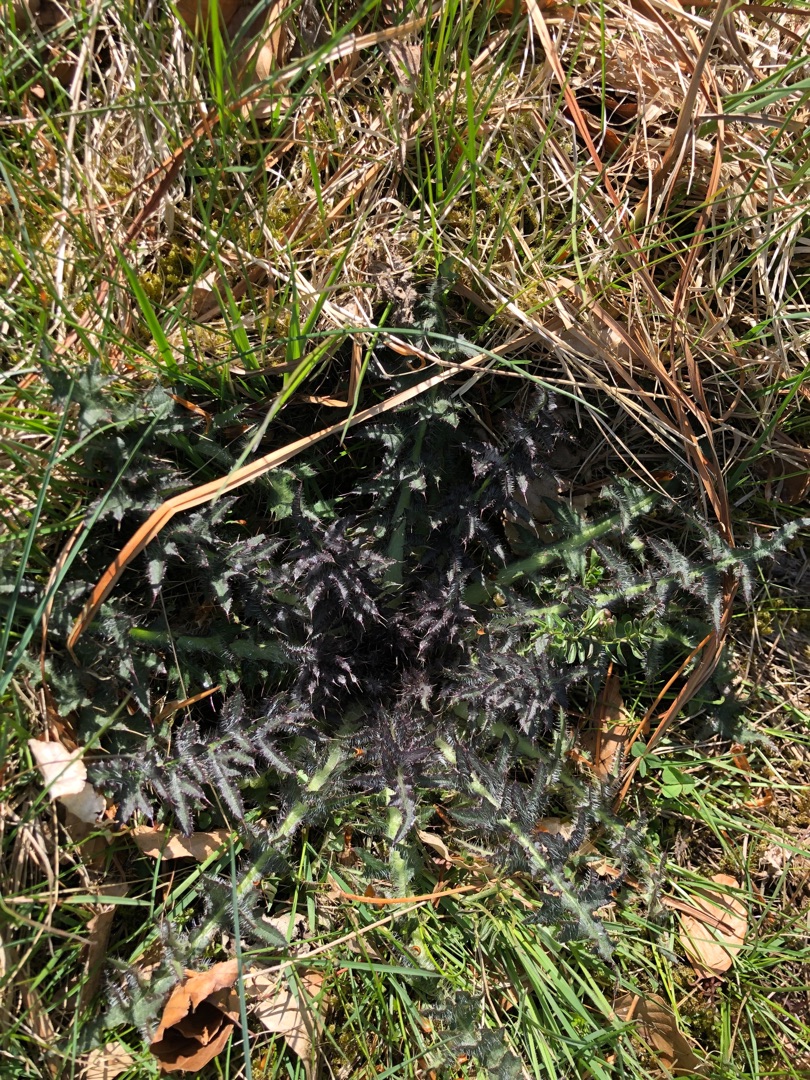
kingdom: Plantae
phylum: Tracheophyta
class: Magnoliopsida
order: Asterales
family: Asteraceae
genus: Cirsium
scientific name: Cirsium palustre
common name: Kær-tidsel
